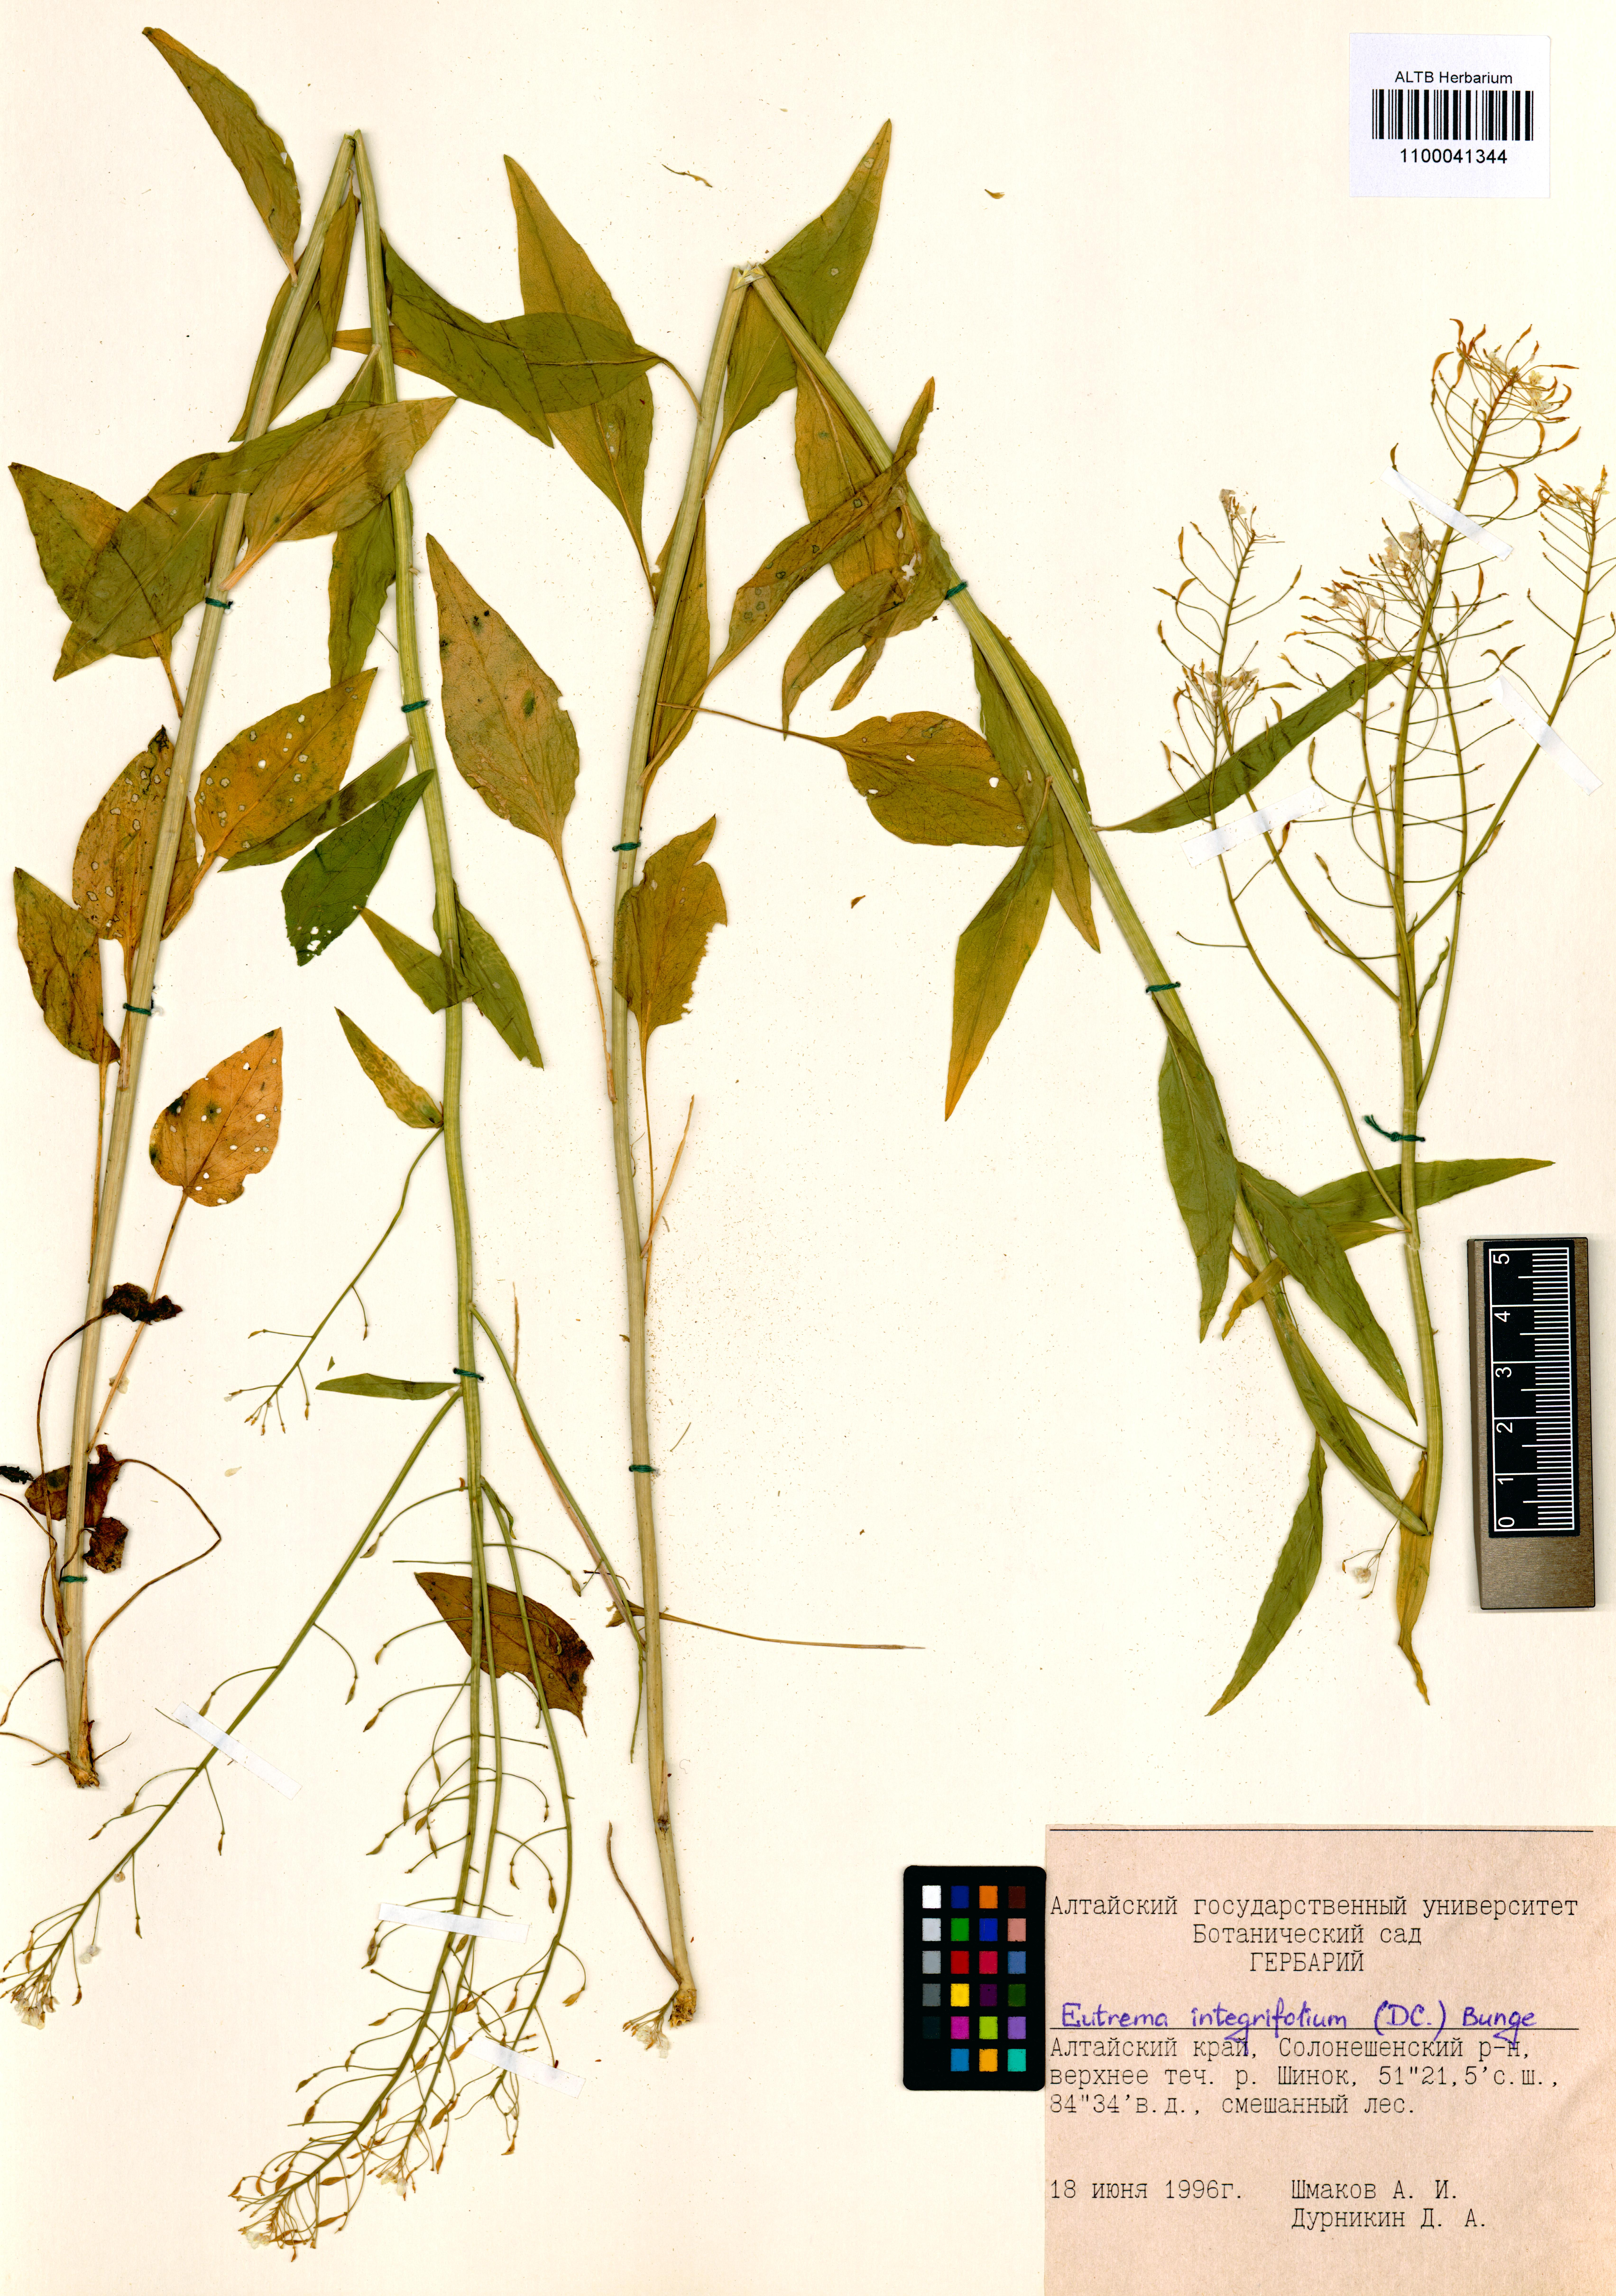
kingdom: Plantae
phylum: Tracheophyta
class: Magnoliopsida
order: Brassicales
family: Brassicaceae
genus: Eutrema
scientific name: Eutrema integrifolium
